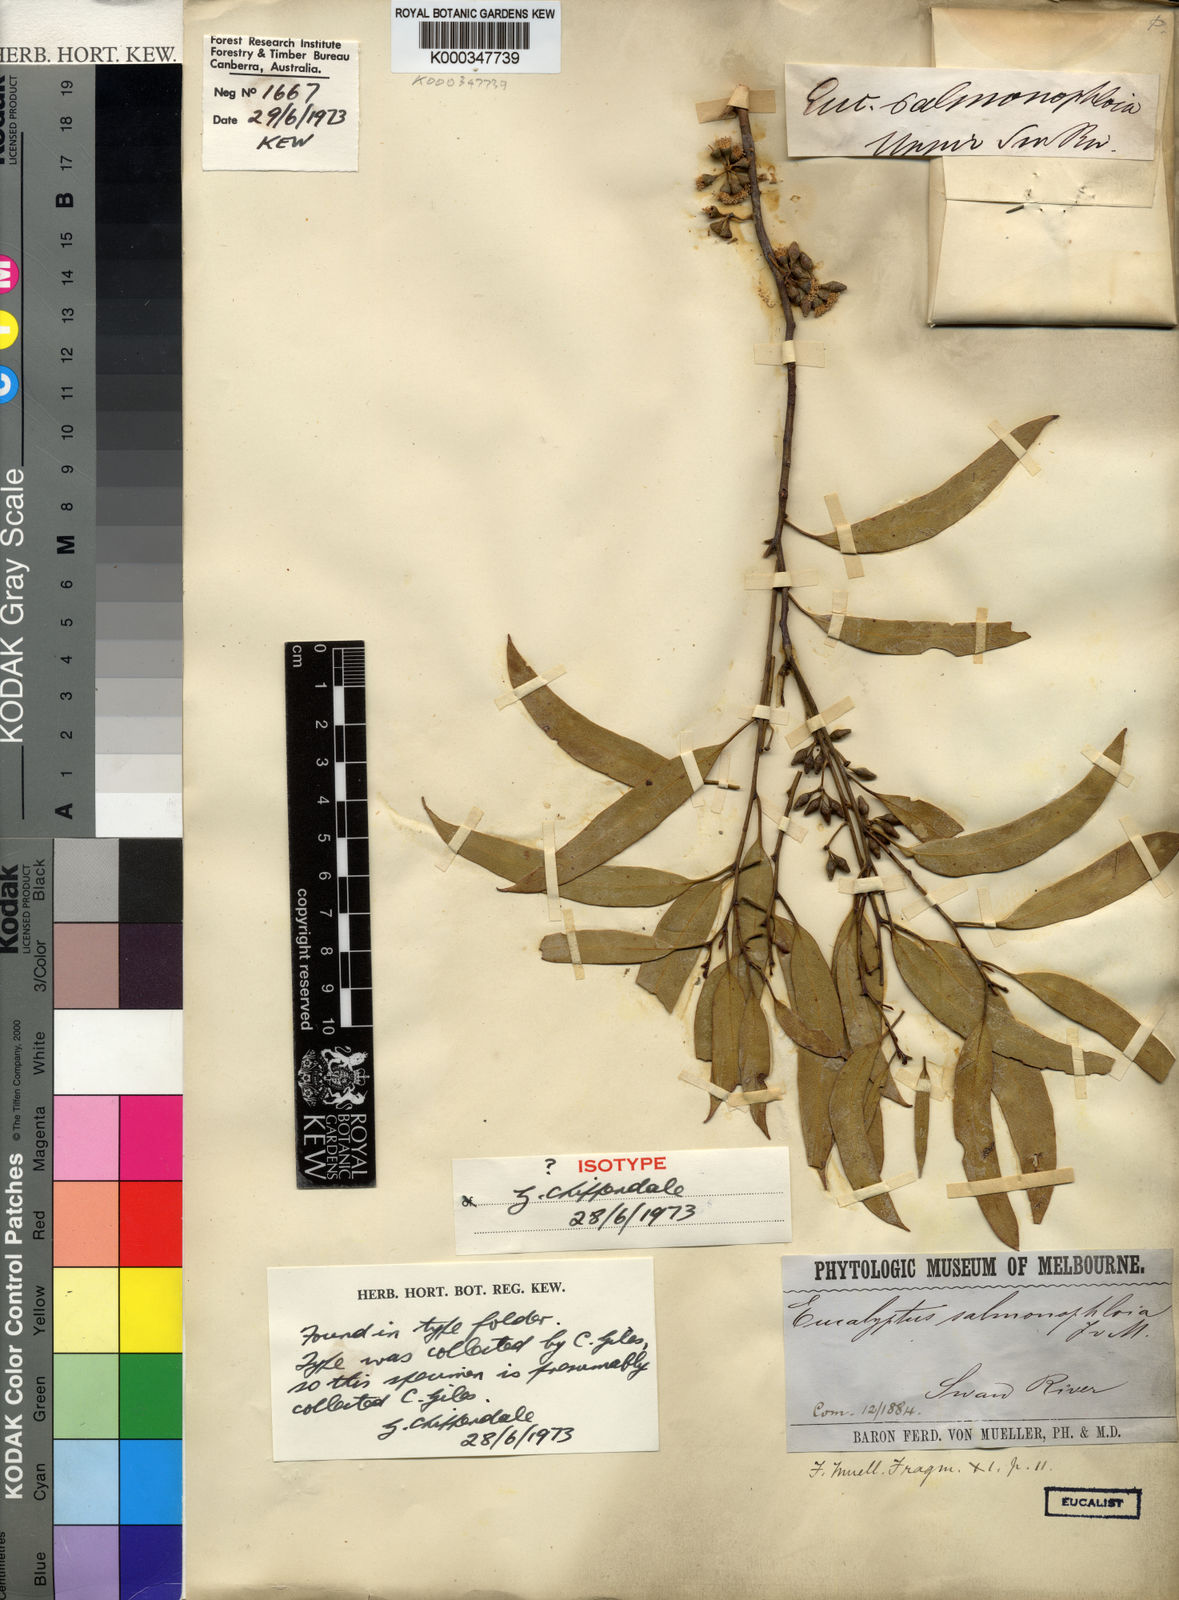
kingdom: Plantae
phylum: Tracheophyta
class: Magnoliopsida
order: Myrtales
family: Myrtaceae
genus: Eucalyptus
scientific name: Eucalyptus salmonophloia
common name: Salmon gum
